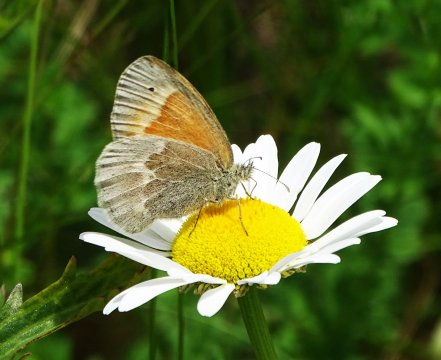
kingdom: Animalia
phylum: Arthropoda
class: Insecta
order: Lepidoptera
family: Nymphalidae
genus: Coenonympha
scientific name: Coenonympha tullia
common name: Large Heath
